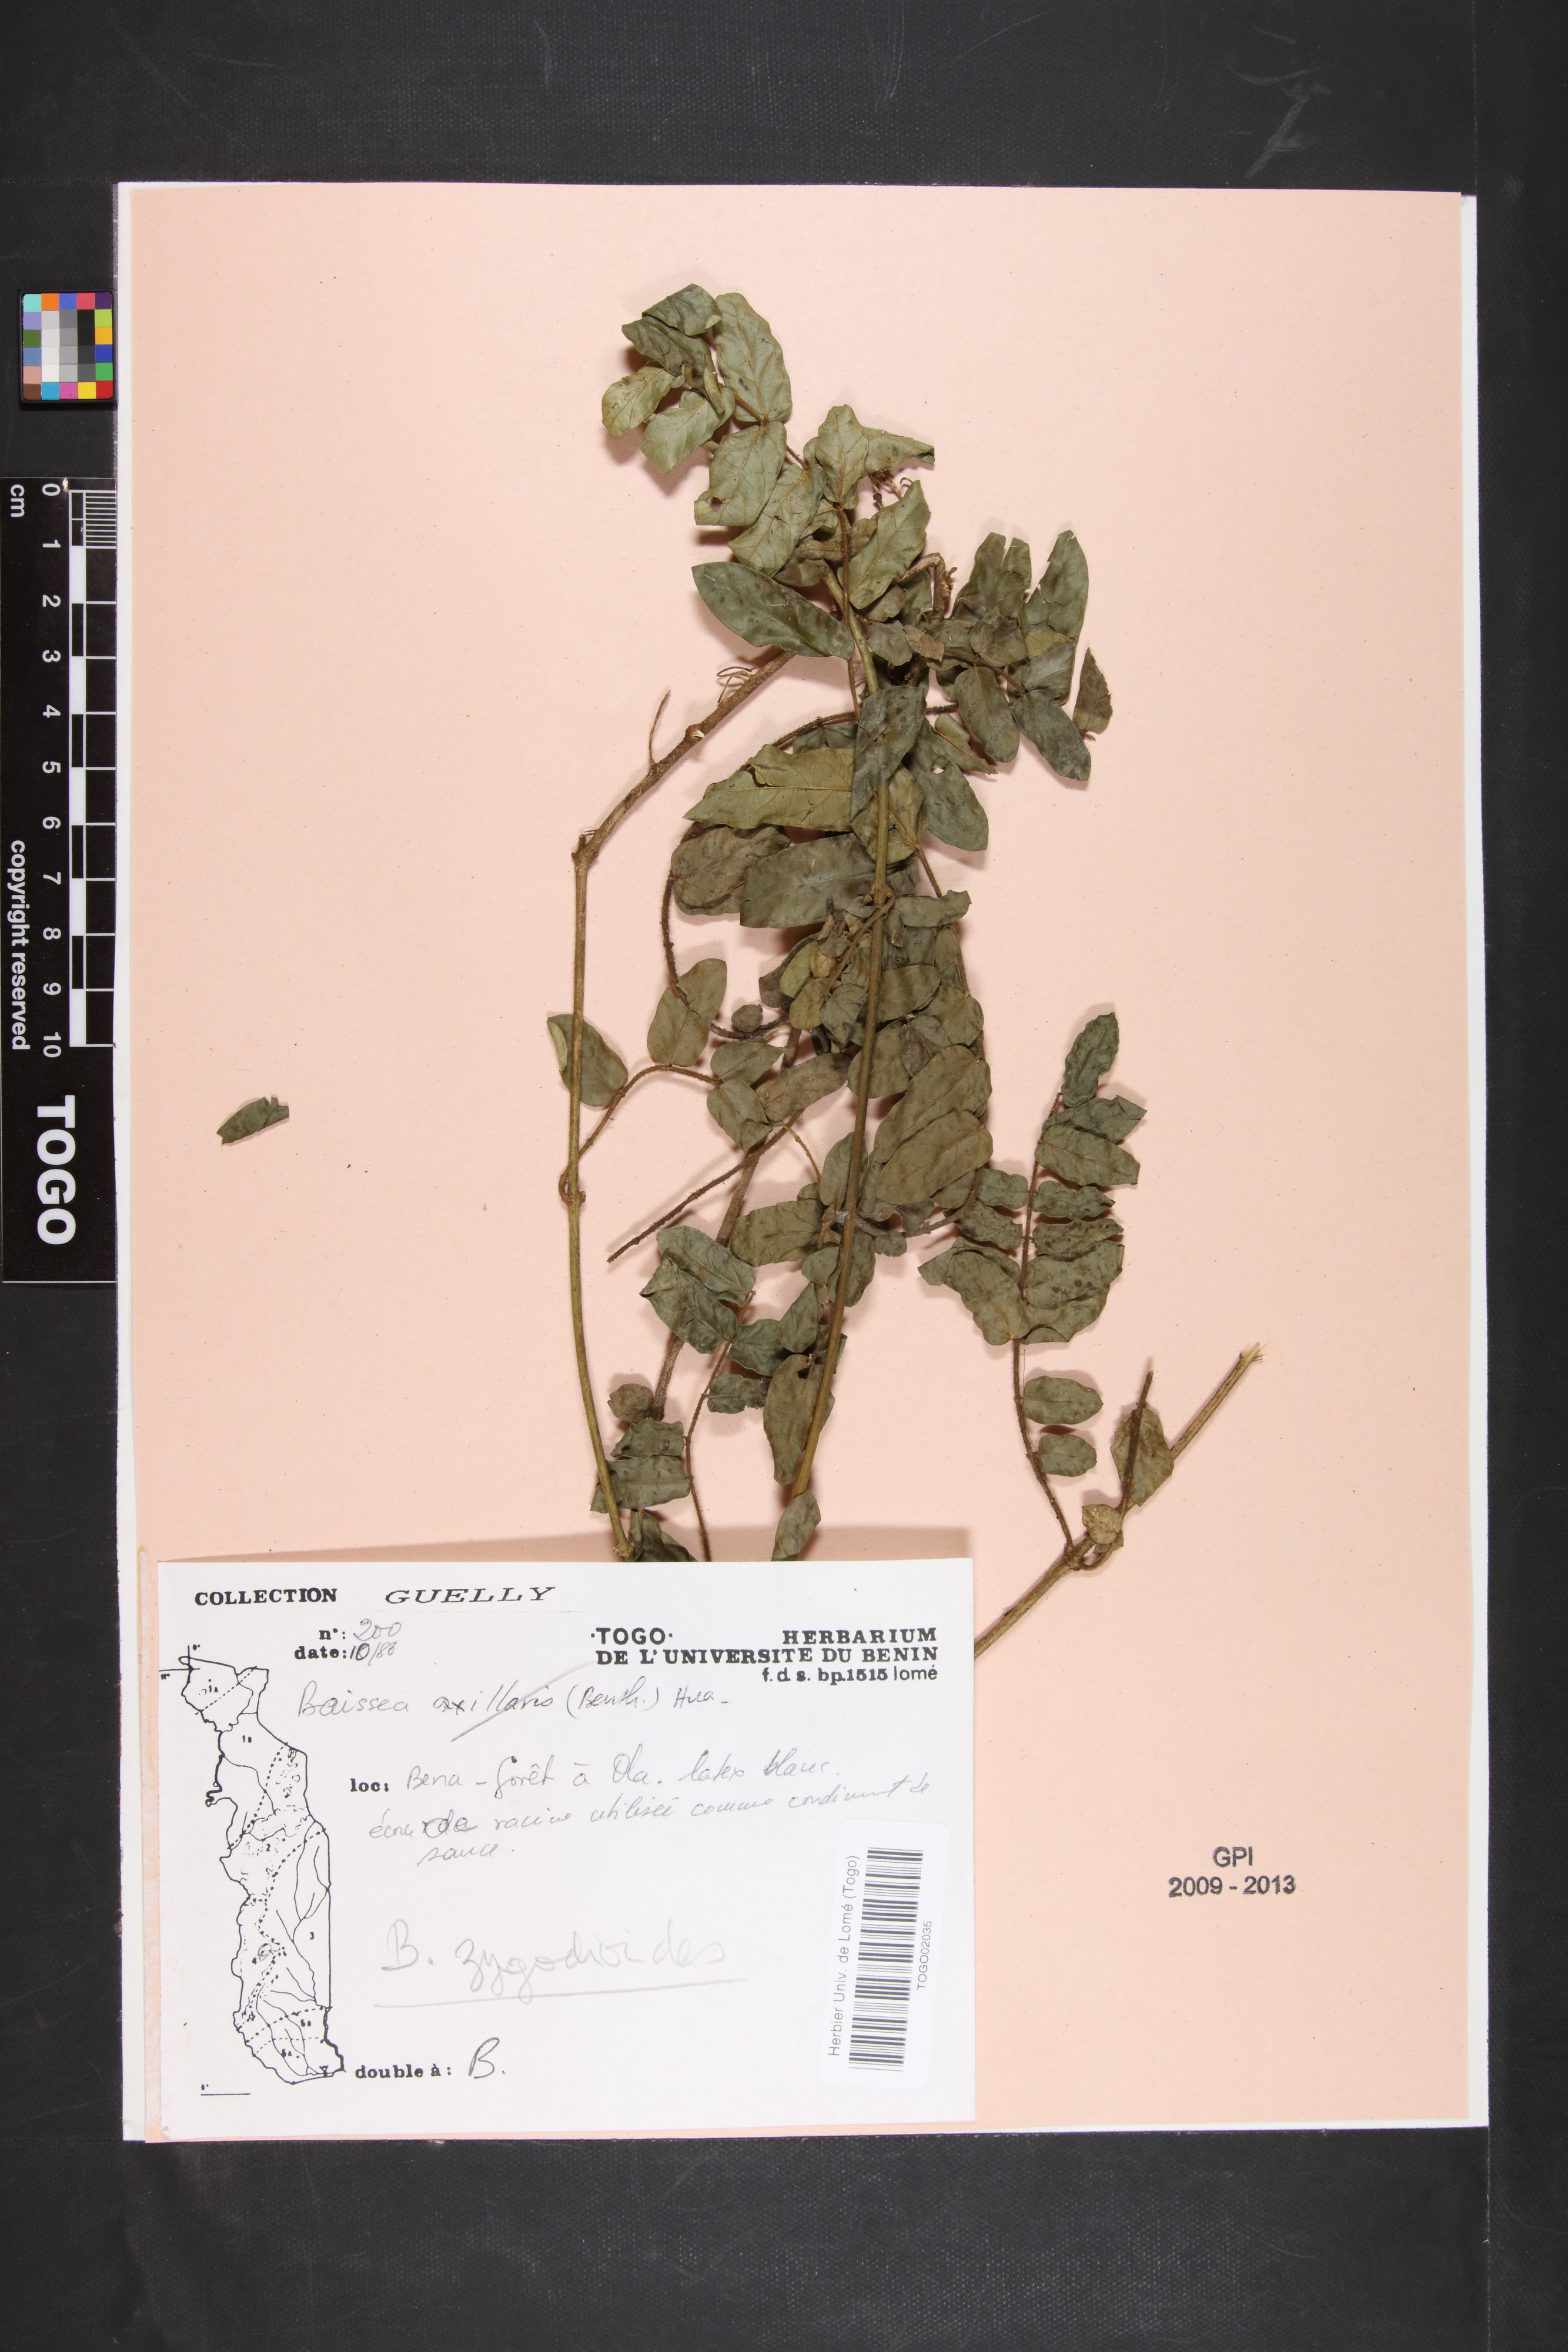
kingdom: Plantae
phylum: Tracheophyta
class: Magnoliopsida
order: Gentianales
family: Apocynaceae
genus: Baissea
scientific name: Baissea zygodioides
